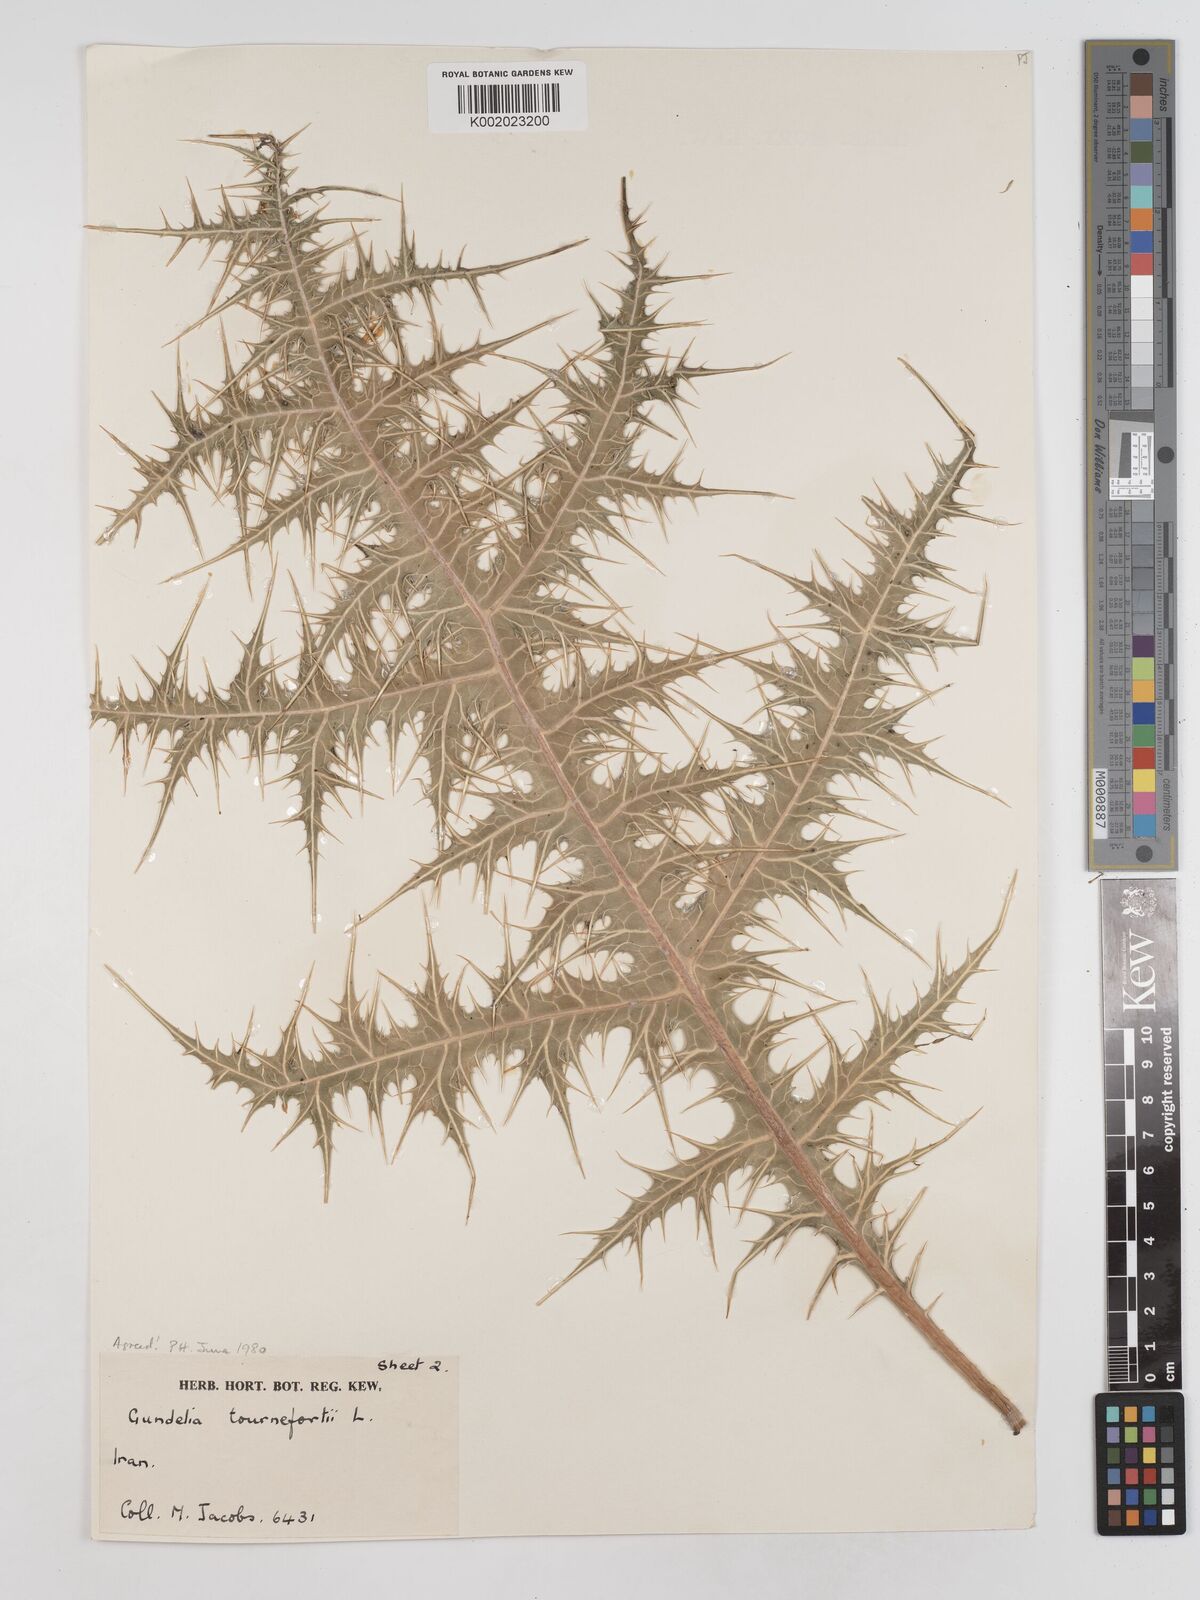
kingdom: Plantae
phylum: Tracheophyta
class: Magnoliopsida
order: Asterales
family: Asteraceae
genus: Gundelia
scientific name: Gundelia tournefortii
